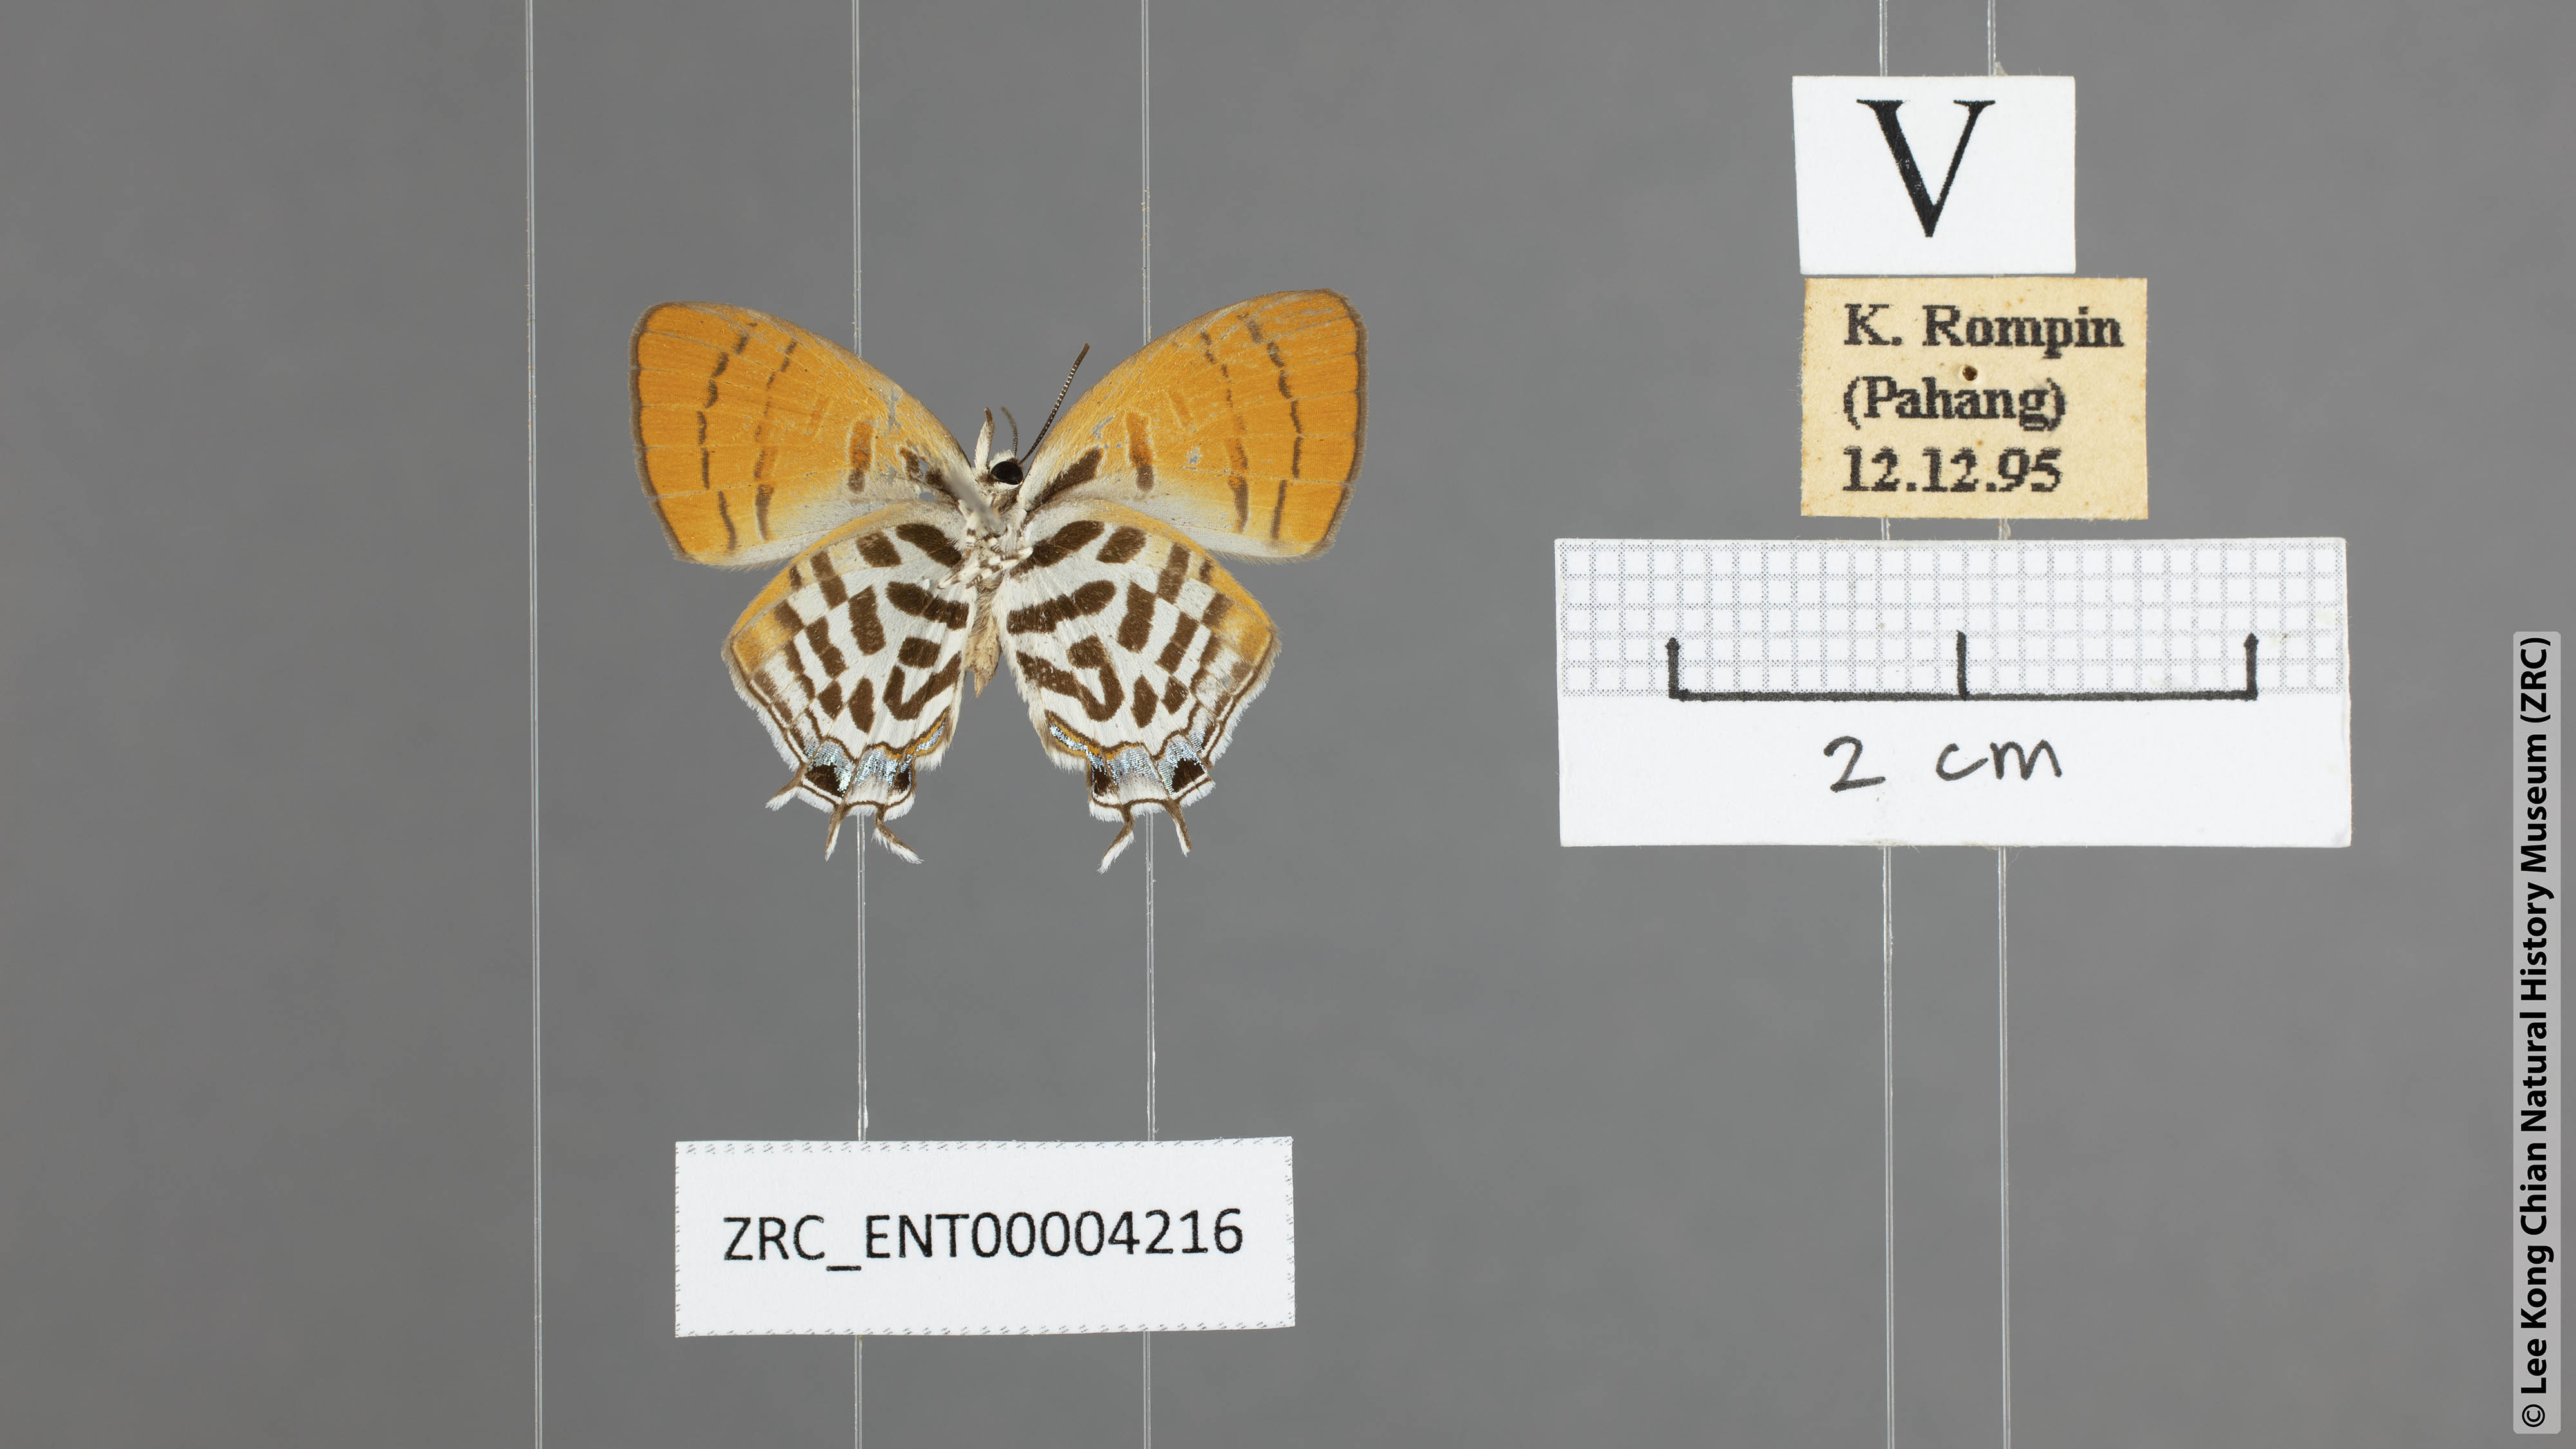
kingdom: Animalia
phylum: Arthropoda
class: Insecta
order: Lepidoptera
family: Lycaenidae
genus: Drupadia
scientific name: Drupadia ravindra
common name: Common posy
